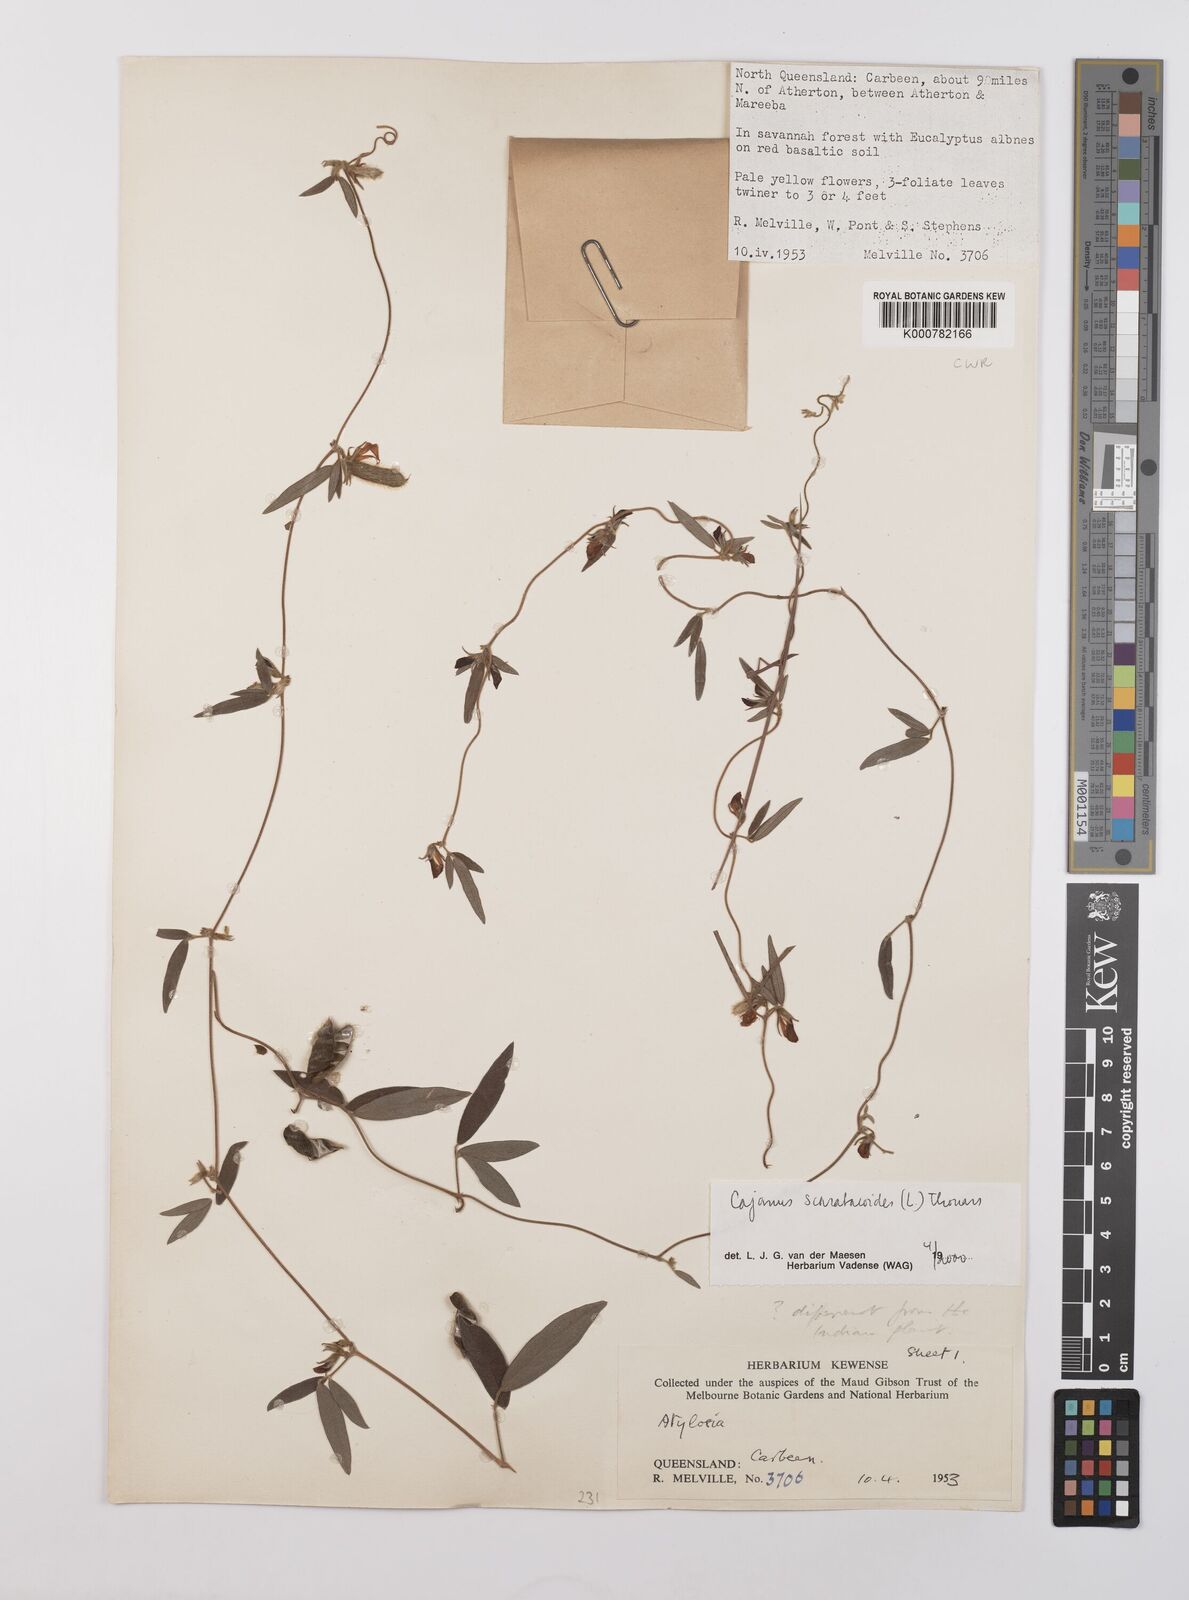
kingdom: Plantae
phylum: Tracheophyta
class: Magnoliopsida
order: Fabales
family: Fabaceae
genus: Cajanus
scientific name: Cajanus scarabaeoides
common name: Showy pigeonpea
